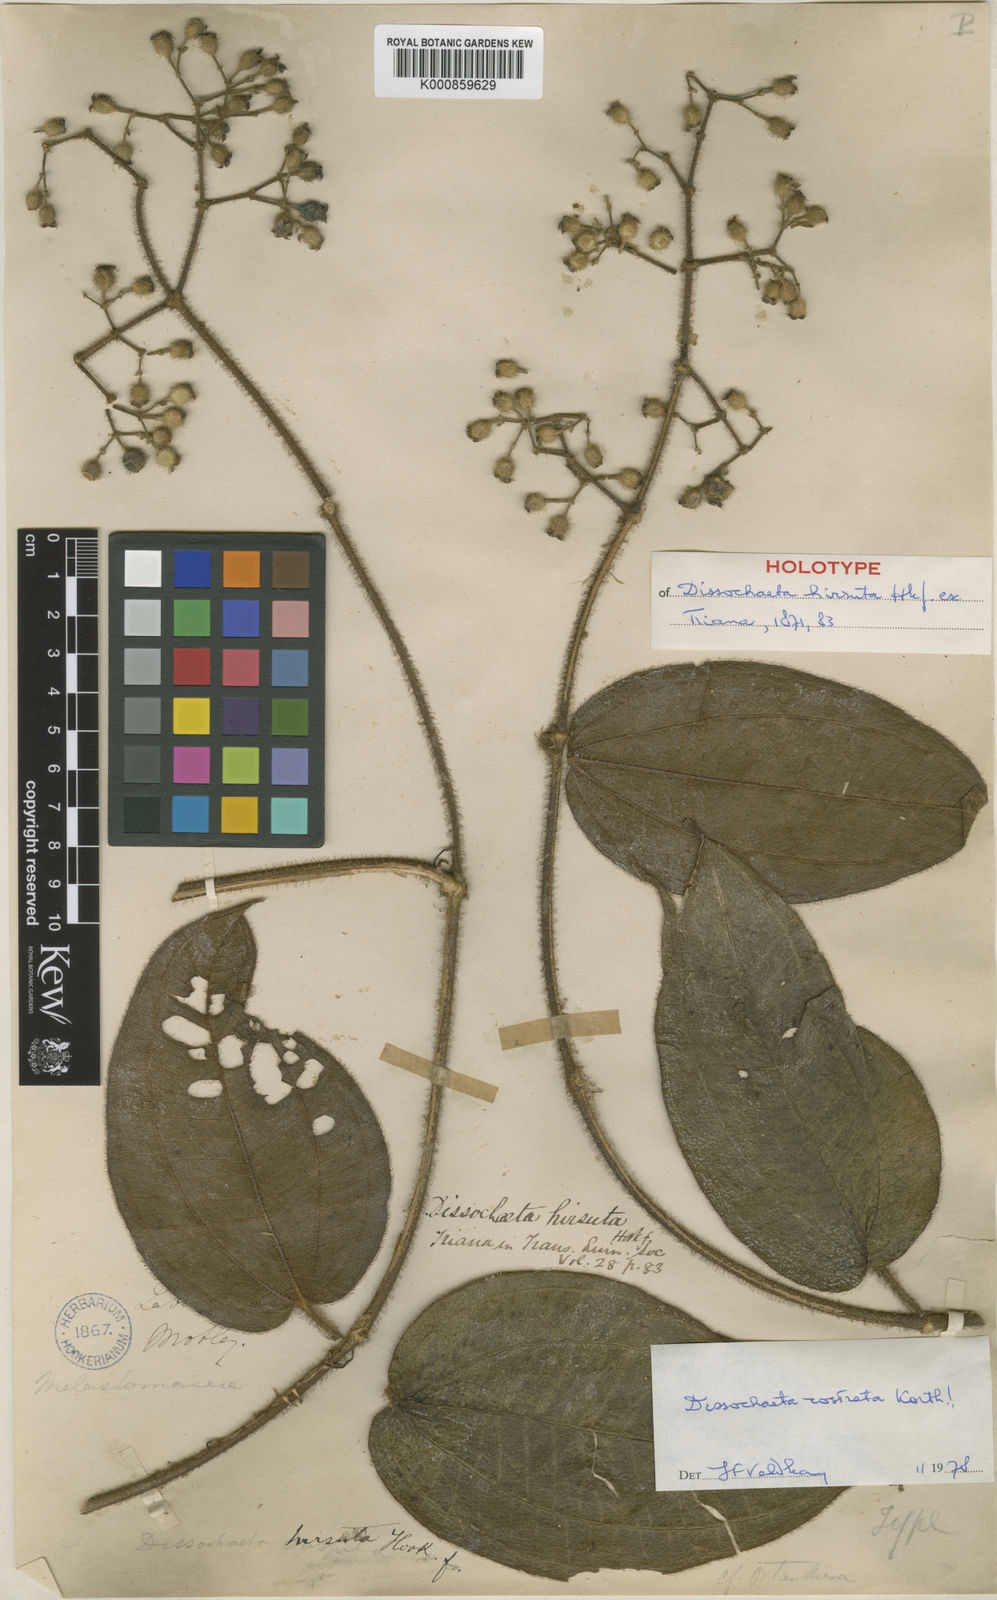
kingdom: Plantae
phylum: Tracheophyta
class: Magnoliopsida
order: Myrtales
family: Melastomataceae
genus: Macrolenes
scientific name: Macrolenes rostrata
